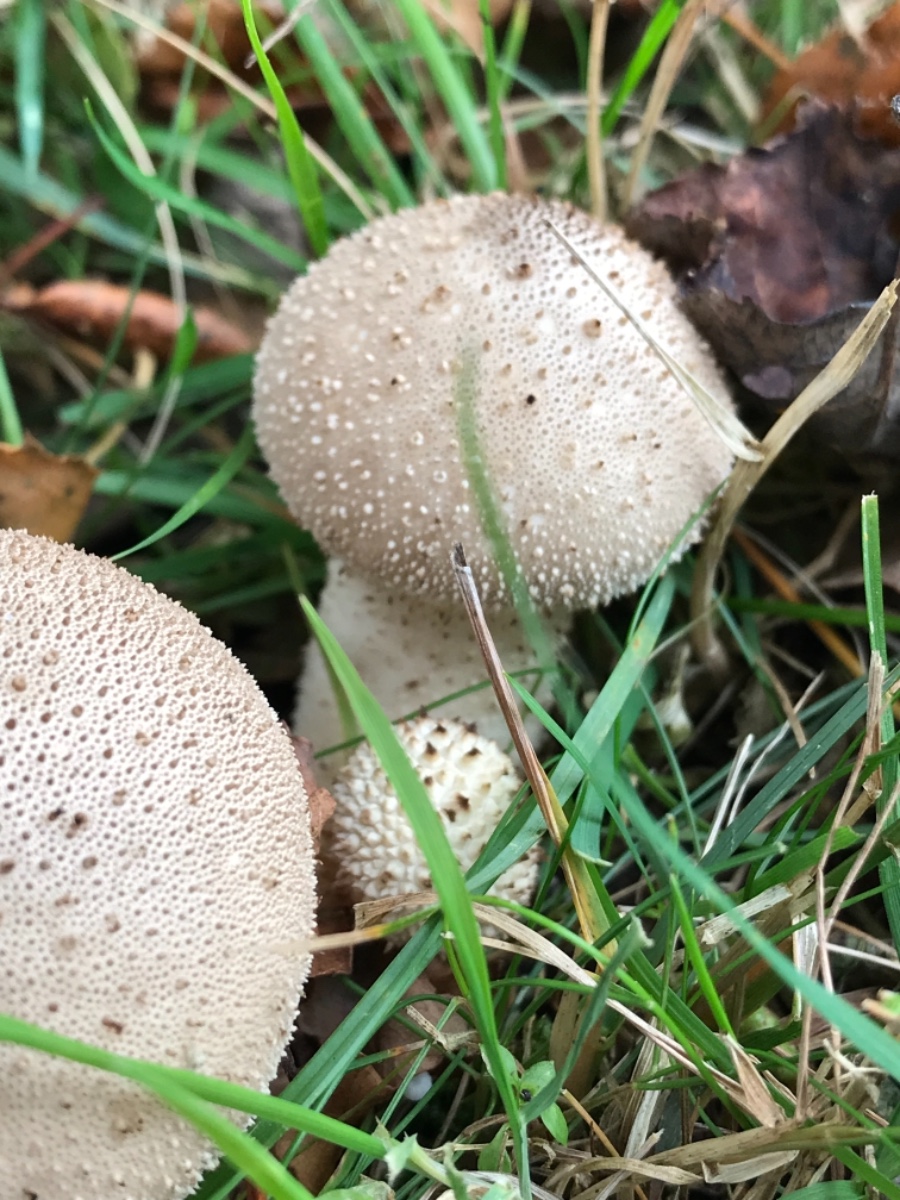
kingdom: Fungi
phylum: Basidiomycota
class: Agaricomycetes
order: Agaricales
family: Lycoperdaceae
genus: Lycoperdon
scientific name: Lycoperdon perlatum
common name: krystal-støvbold
